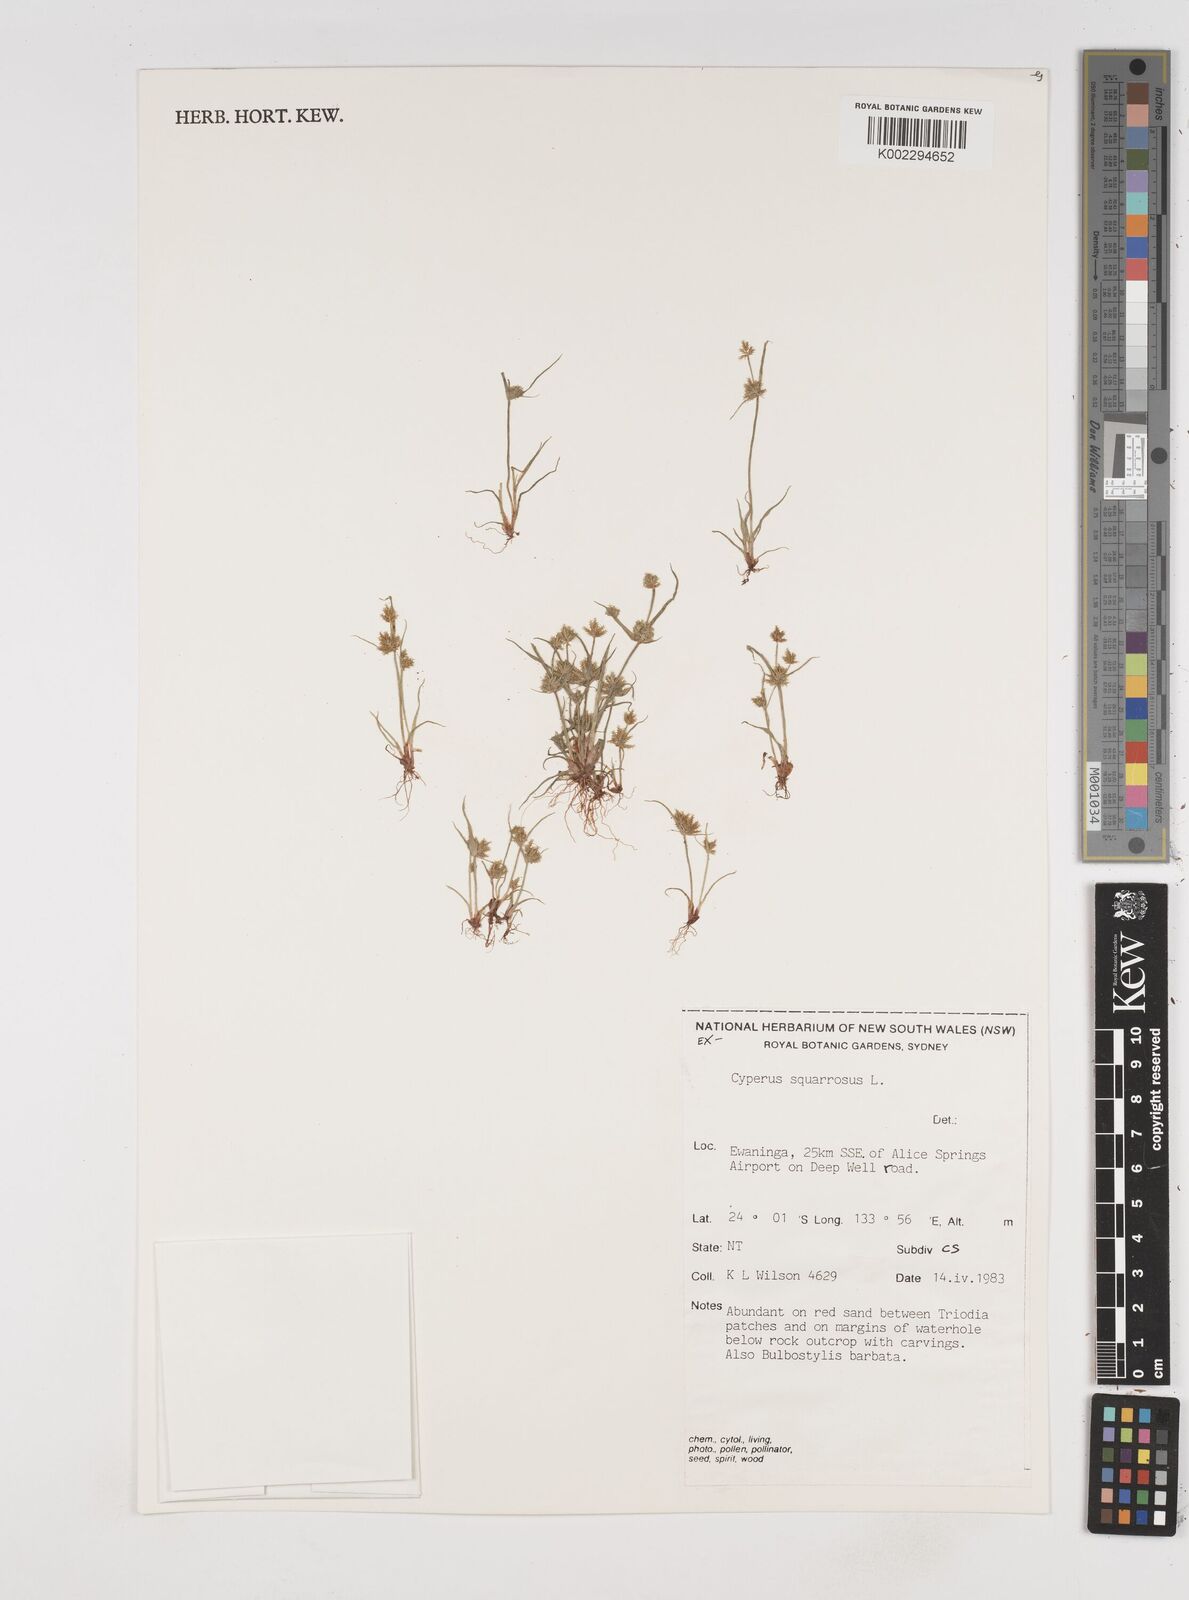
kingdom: Plantae
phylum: Tracheophyta
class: Liliopsida
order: Poales
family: Cyperaceae
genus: Cyperus
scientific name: Cyperus squarrosus
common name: Awned cyperus
